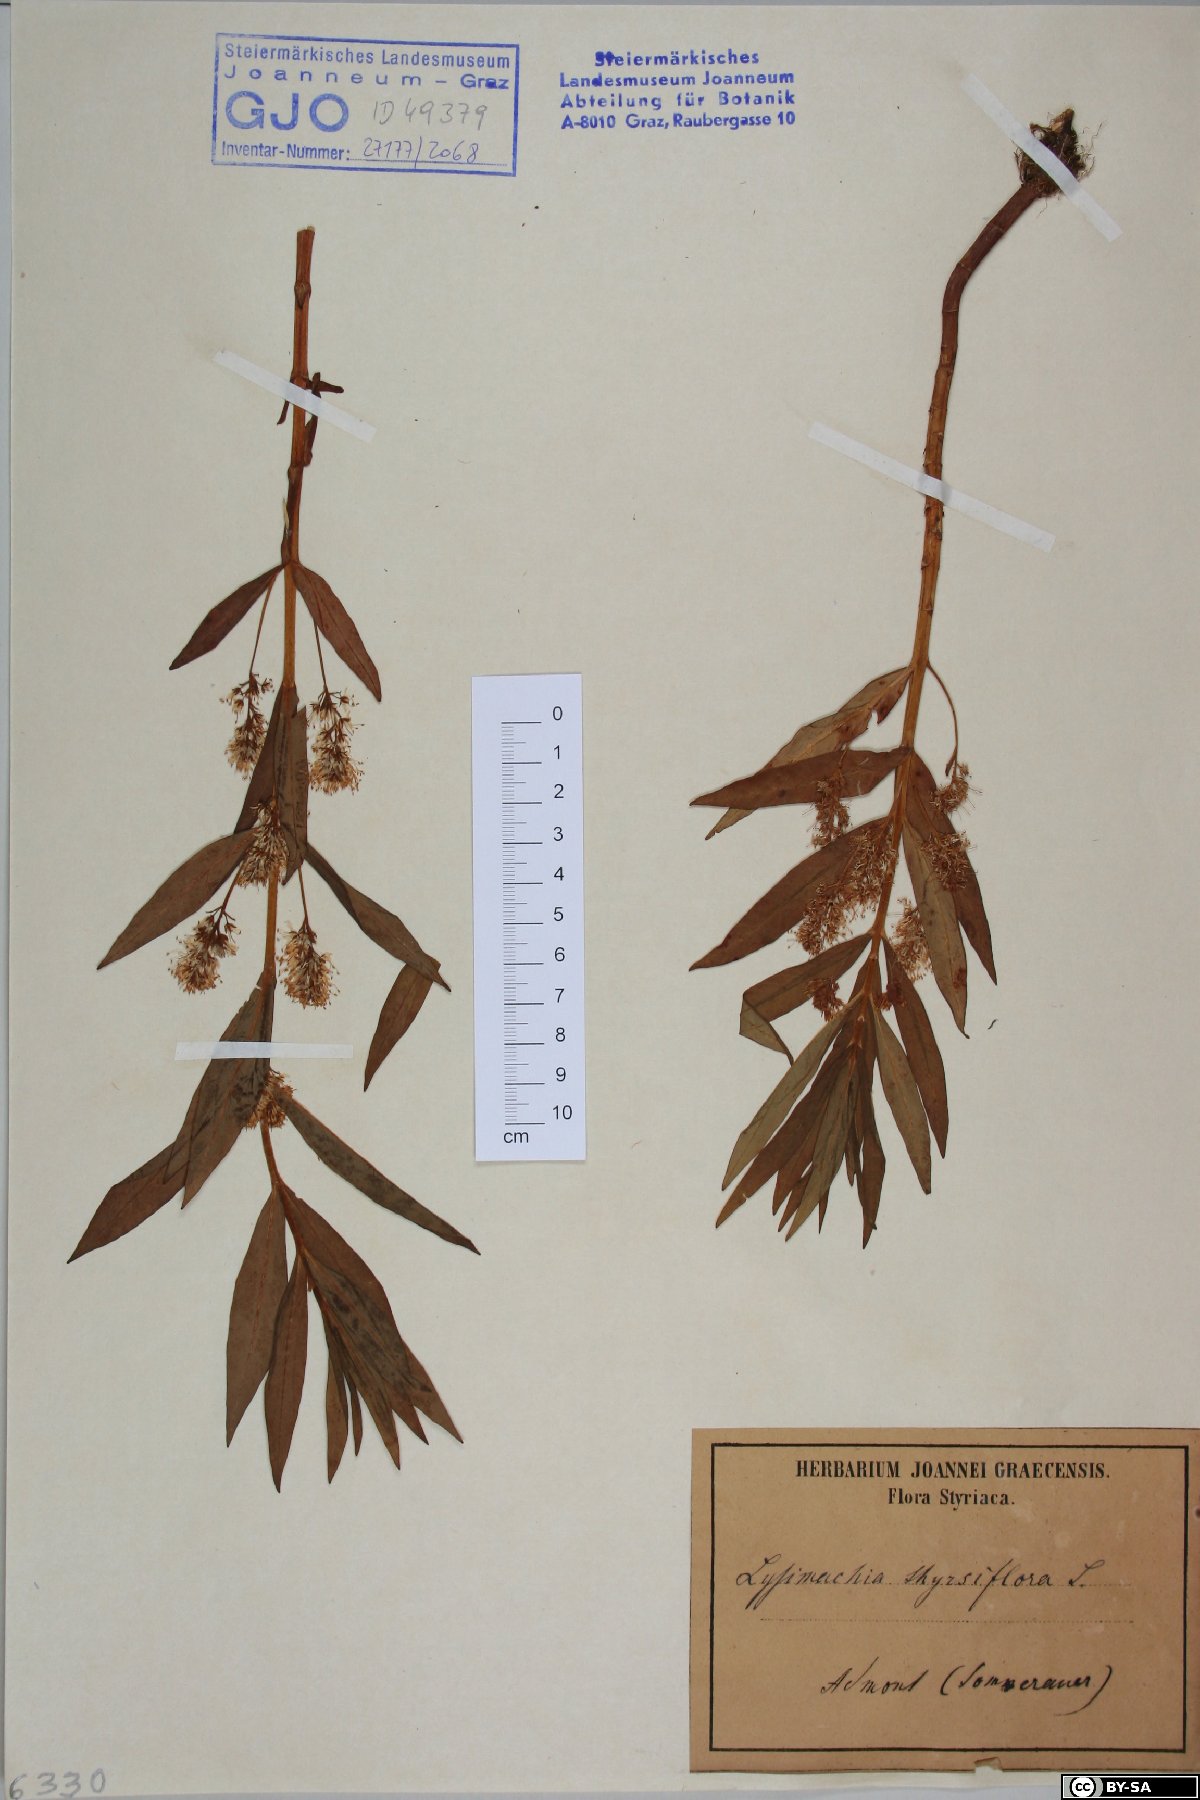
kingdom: Plantae
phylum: Tracheophyta
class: Magnoliopsida
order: Ericales
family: Primulaceae
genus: Lysimachia
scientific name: Lysimachia thyrsiflora
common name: Tufted loosestrife
